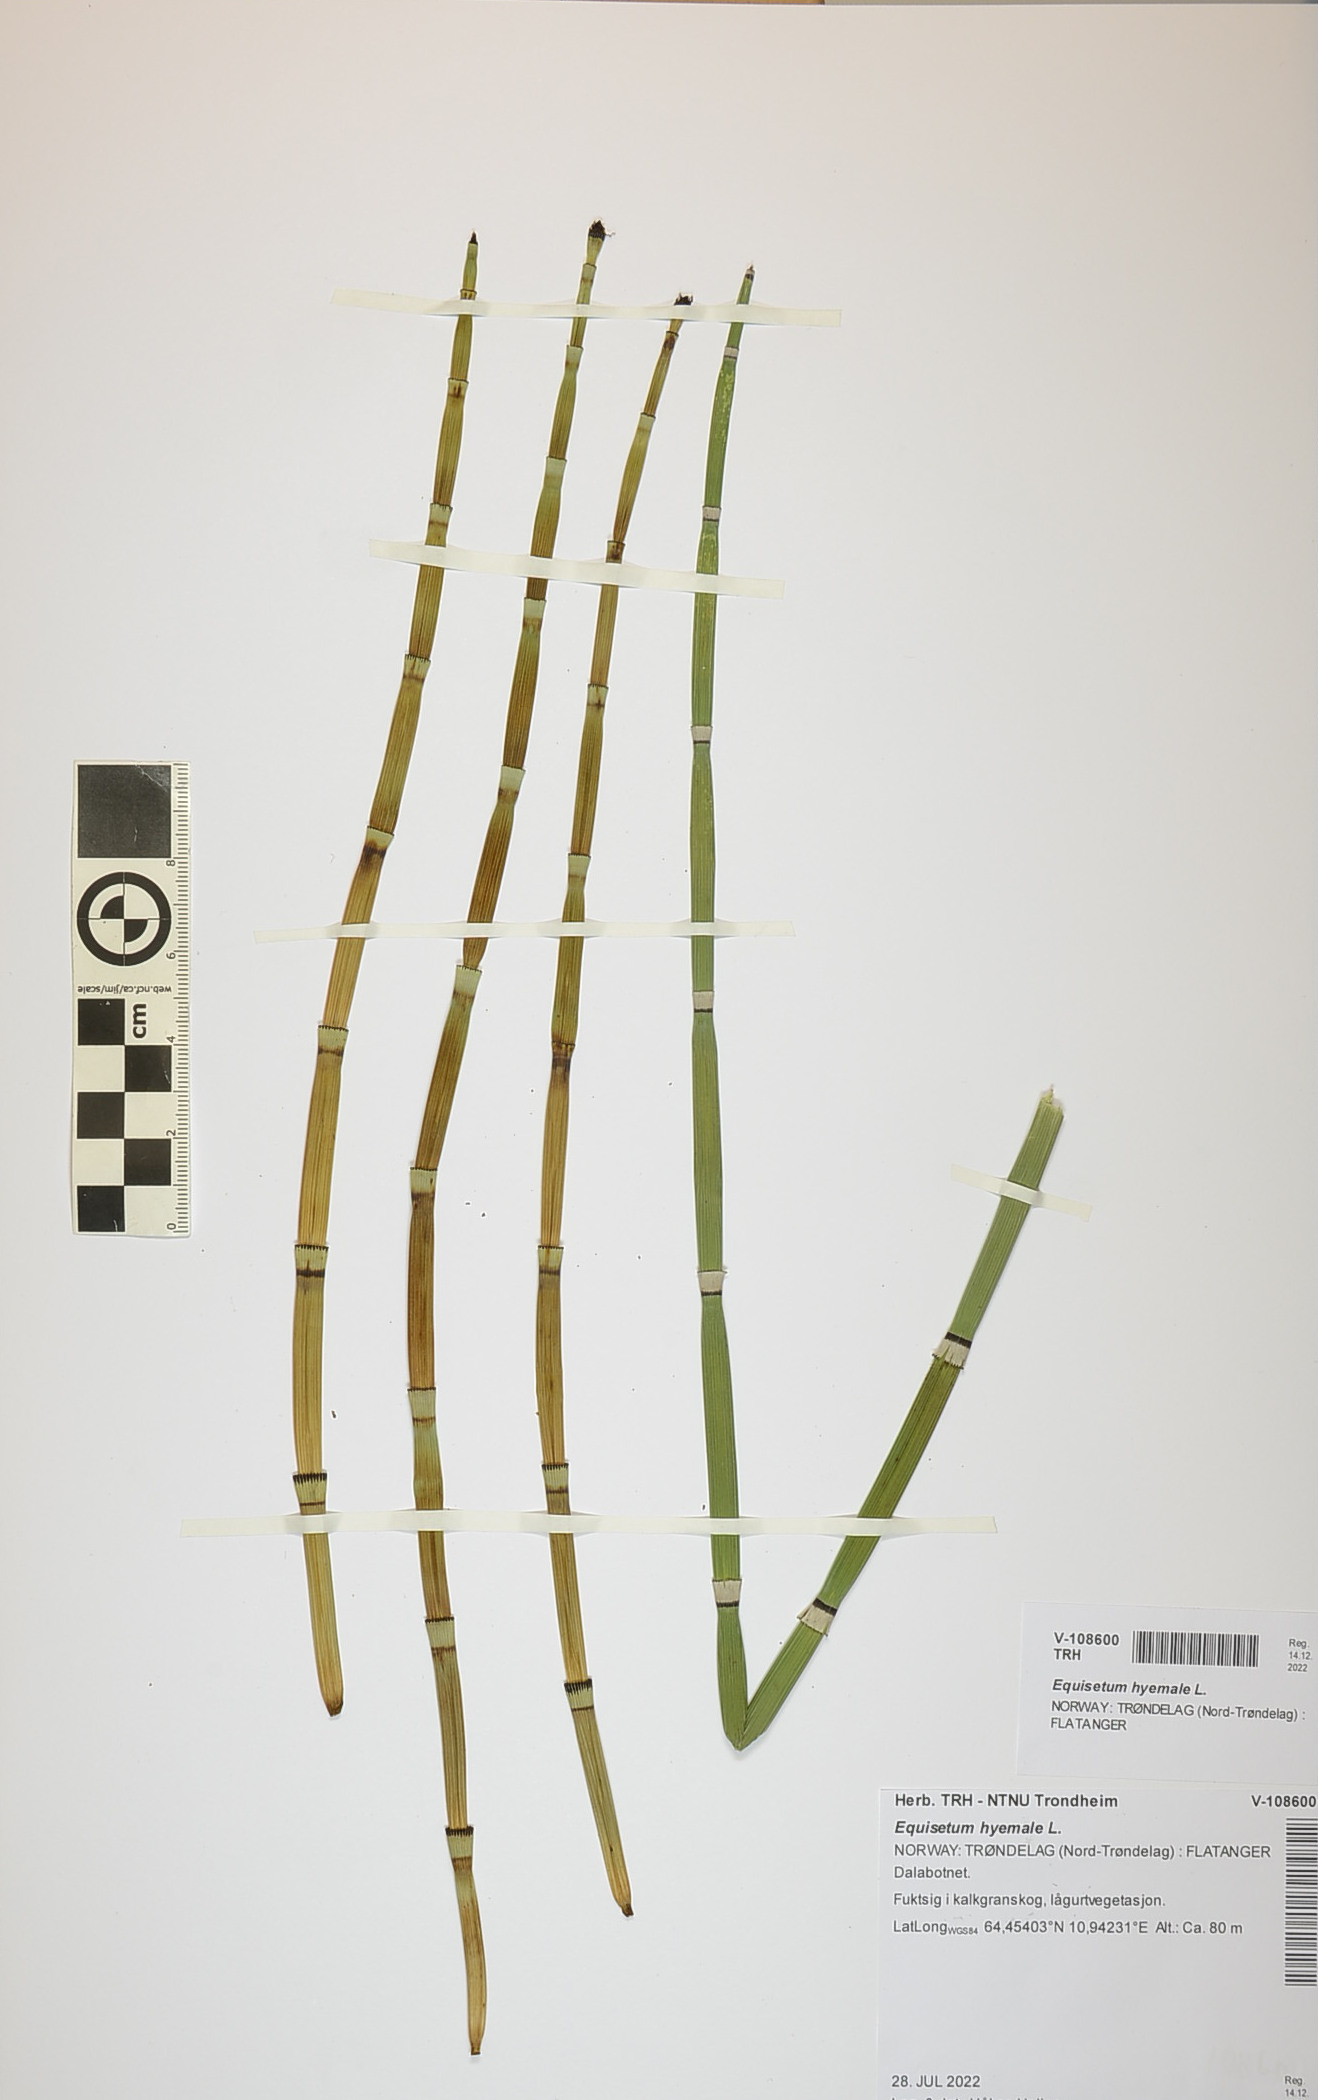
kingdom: Plantae
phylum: Tracheophyta
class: Polypodiopsida
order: Equisetales
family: Equisetaceae
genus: Equisetum
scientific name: Equisetum hyemale
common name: Rough horsetail
